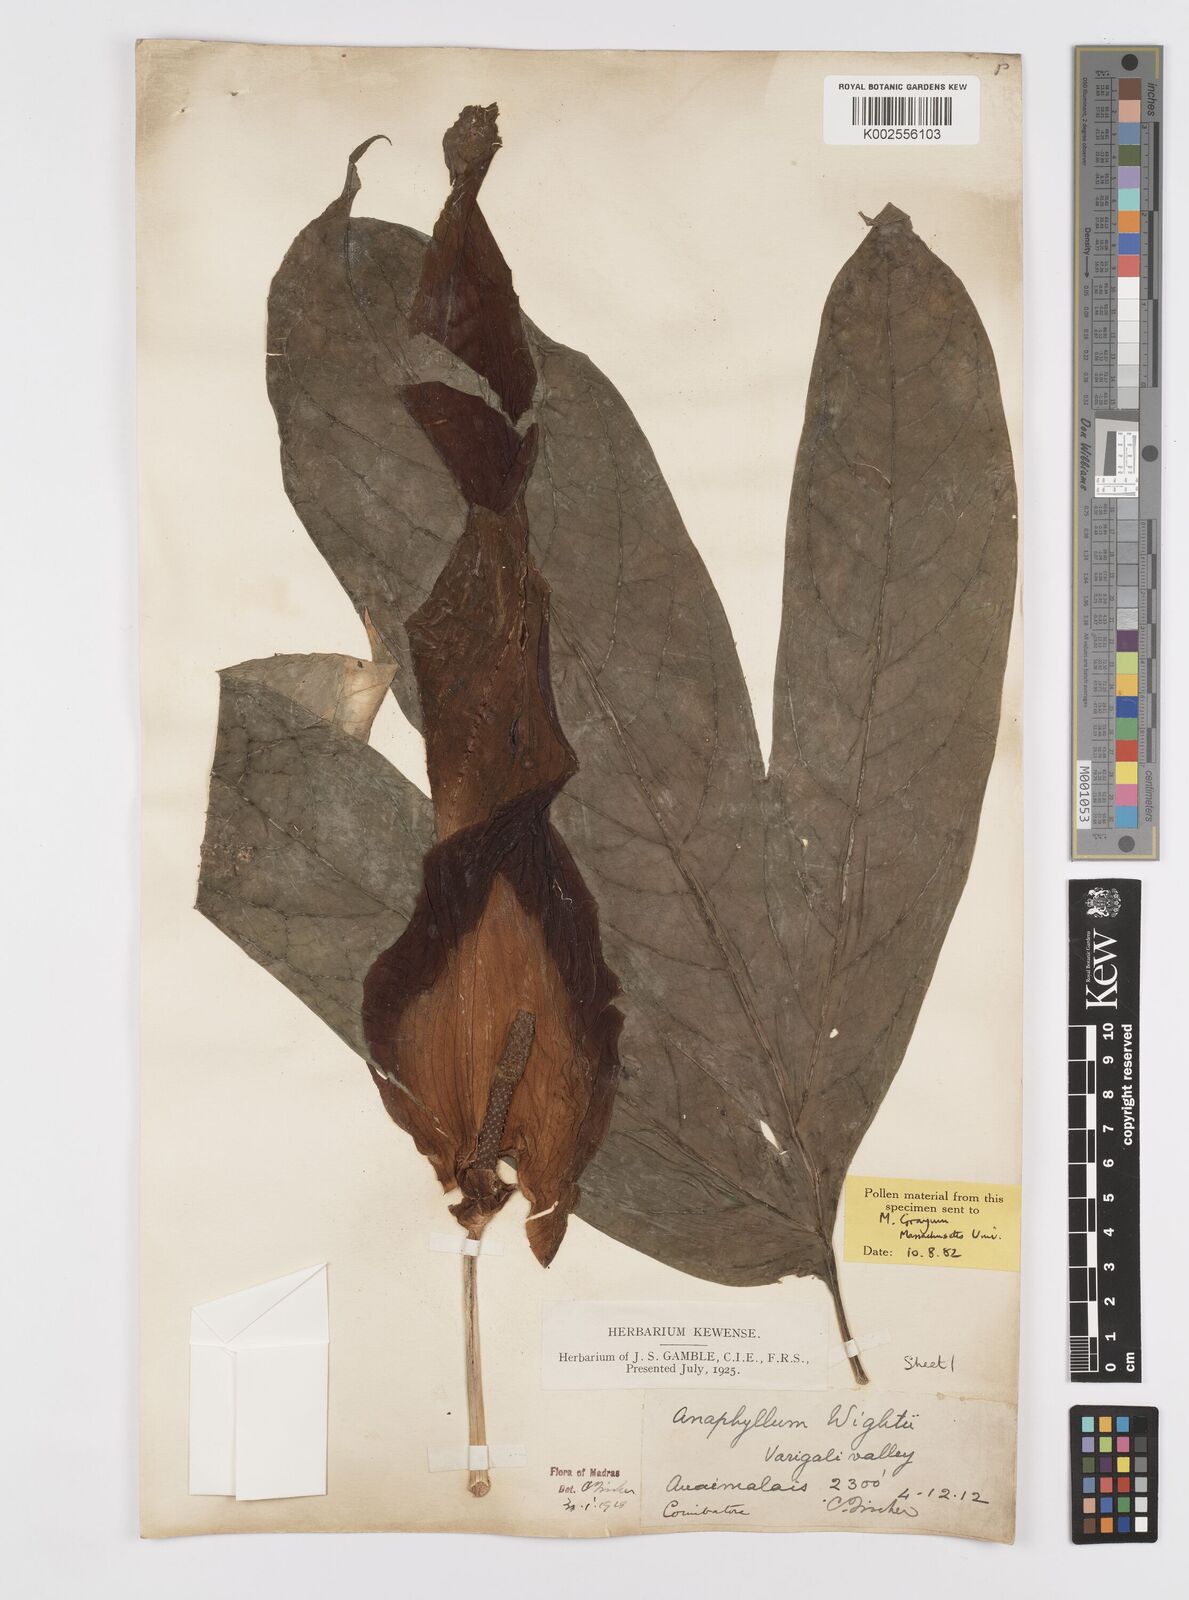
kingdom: Plantae
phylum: Tracheophyta
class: Liliopsida
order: Alismatales
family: Araceae
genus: Anaphyllum
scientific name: Anaphyllum wightii
